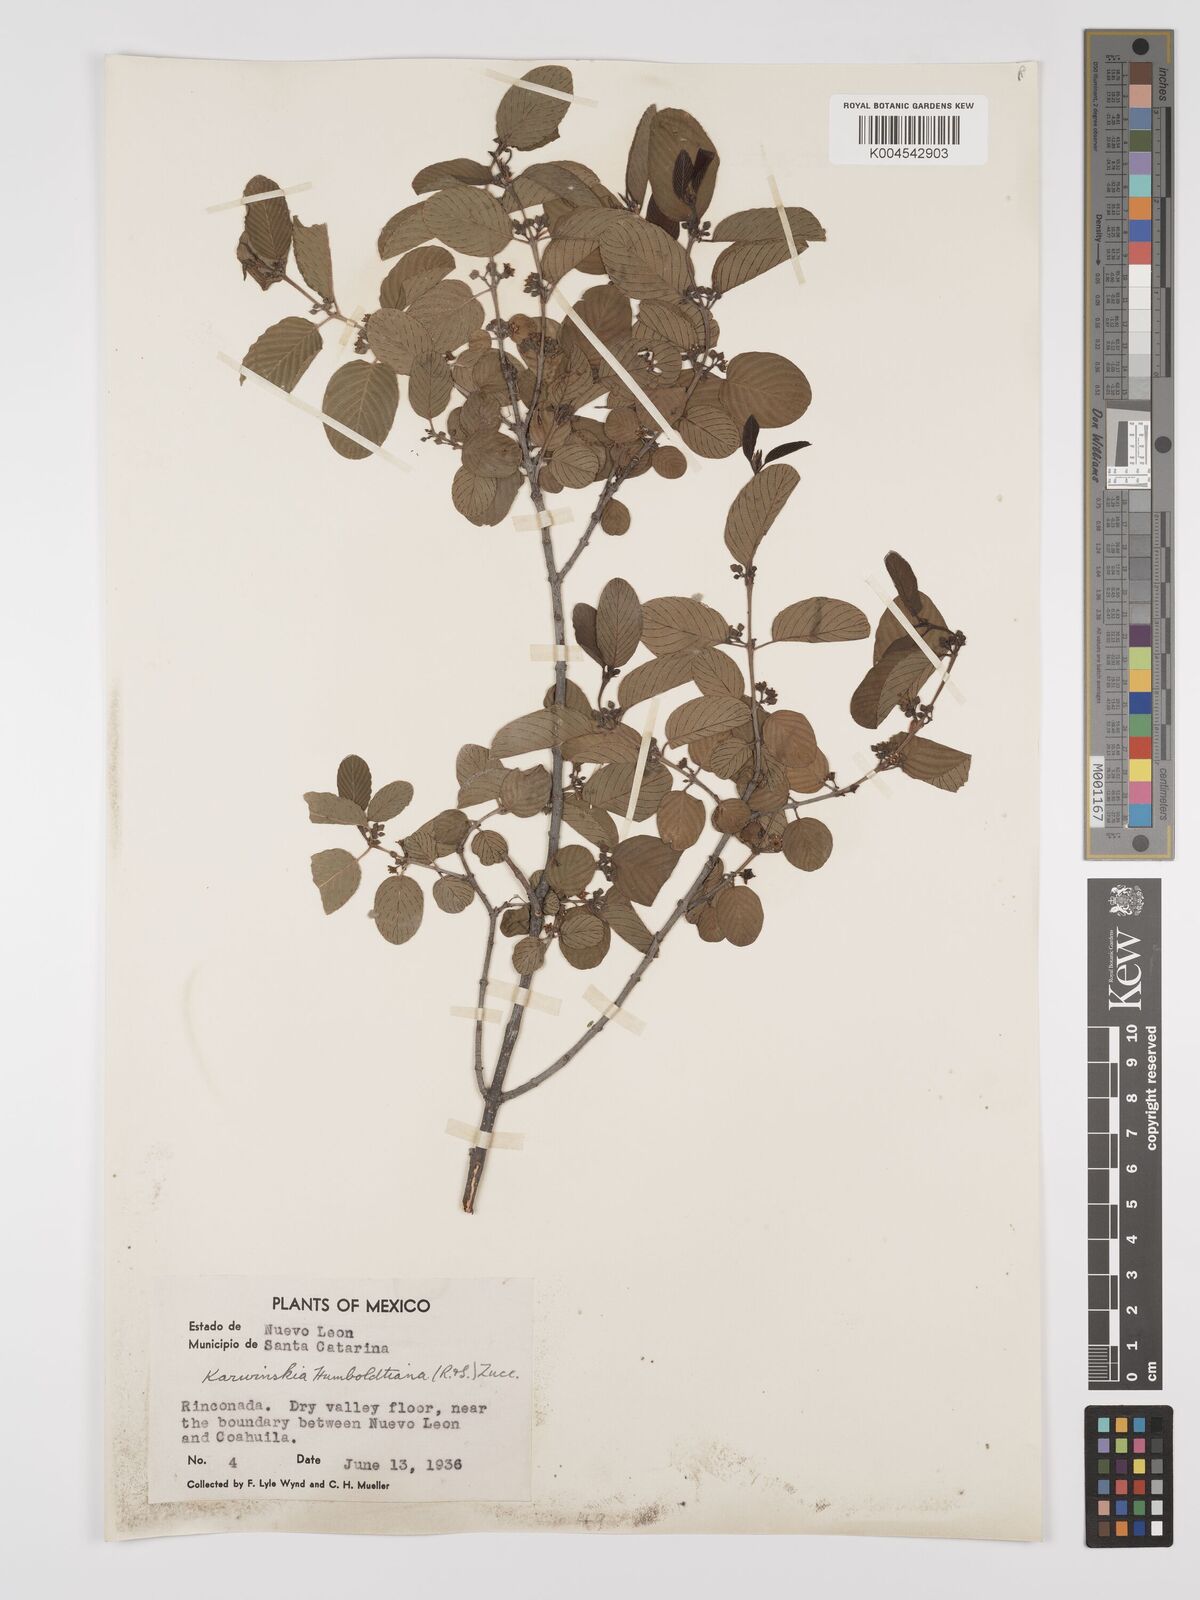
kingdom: Plantae
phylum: Tracheophyta
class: Magnoliopsida
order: Rosales
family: Rhamnaceae
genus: Karwinskia
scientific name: Karwinskia humboldtiana
